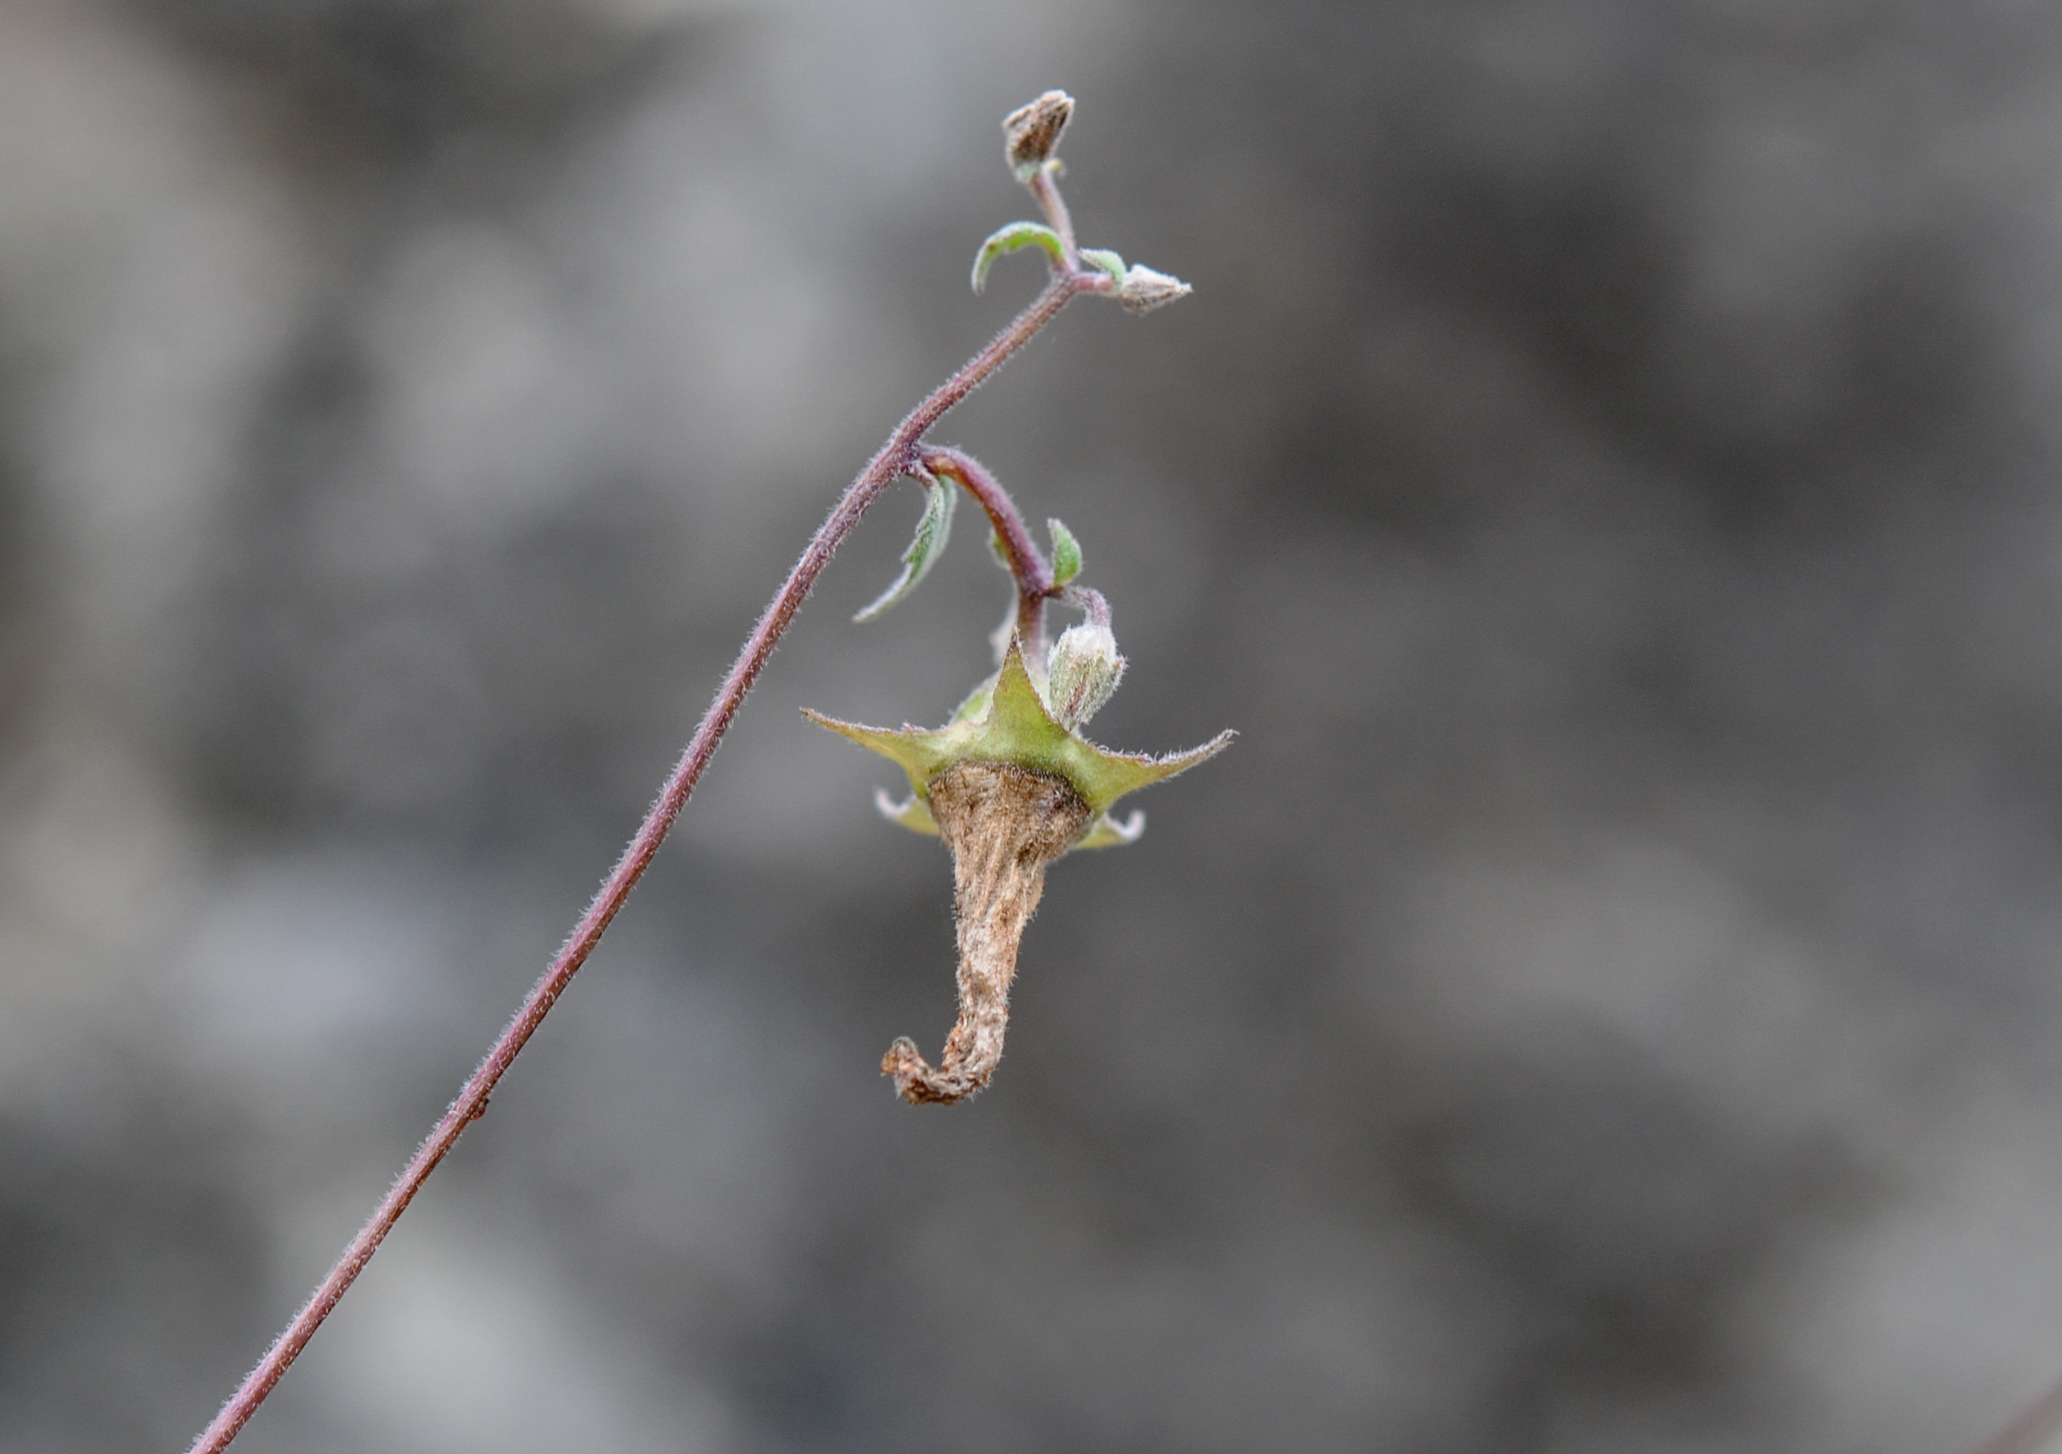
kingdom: Plantae
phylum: Tracheophyta
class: Magnoliopsida
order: Asterales
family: Campanulaceae
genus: Campanula
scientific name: Campanula armena
